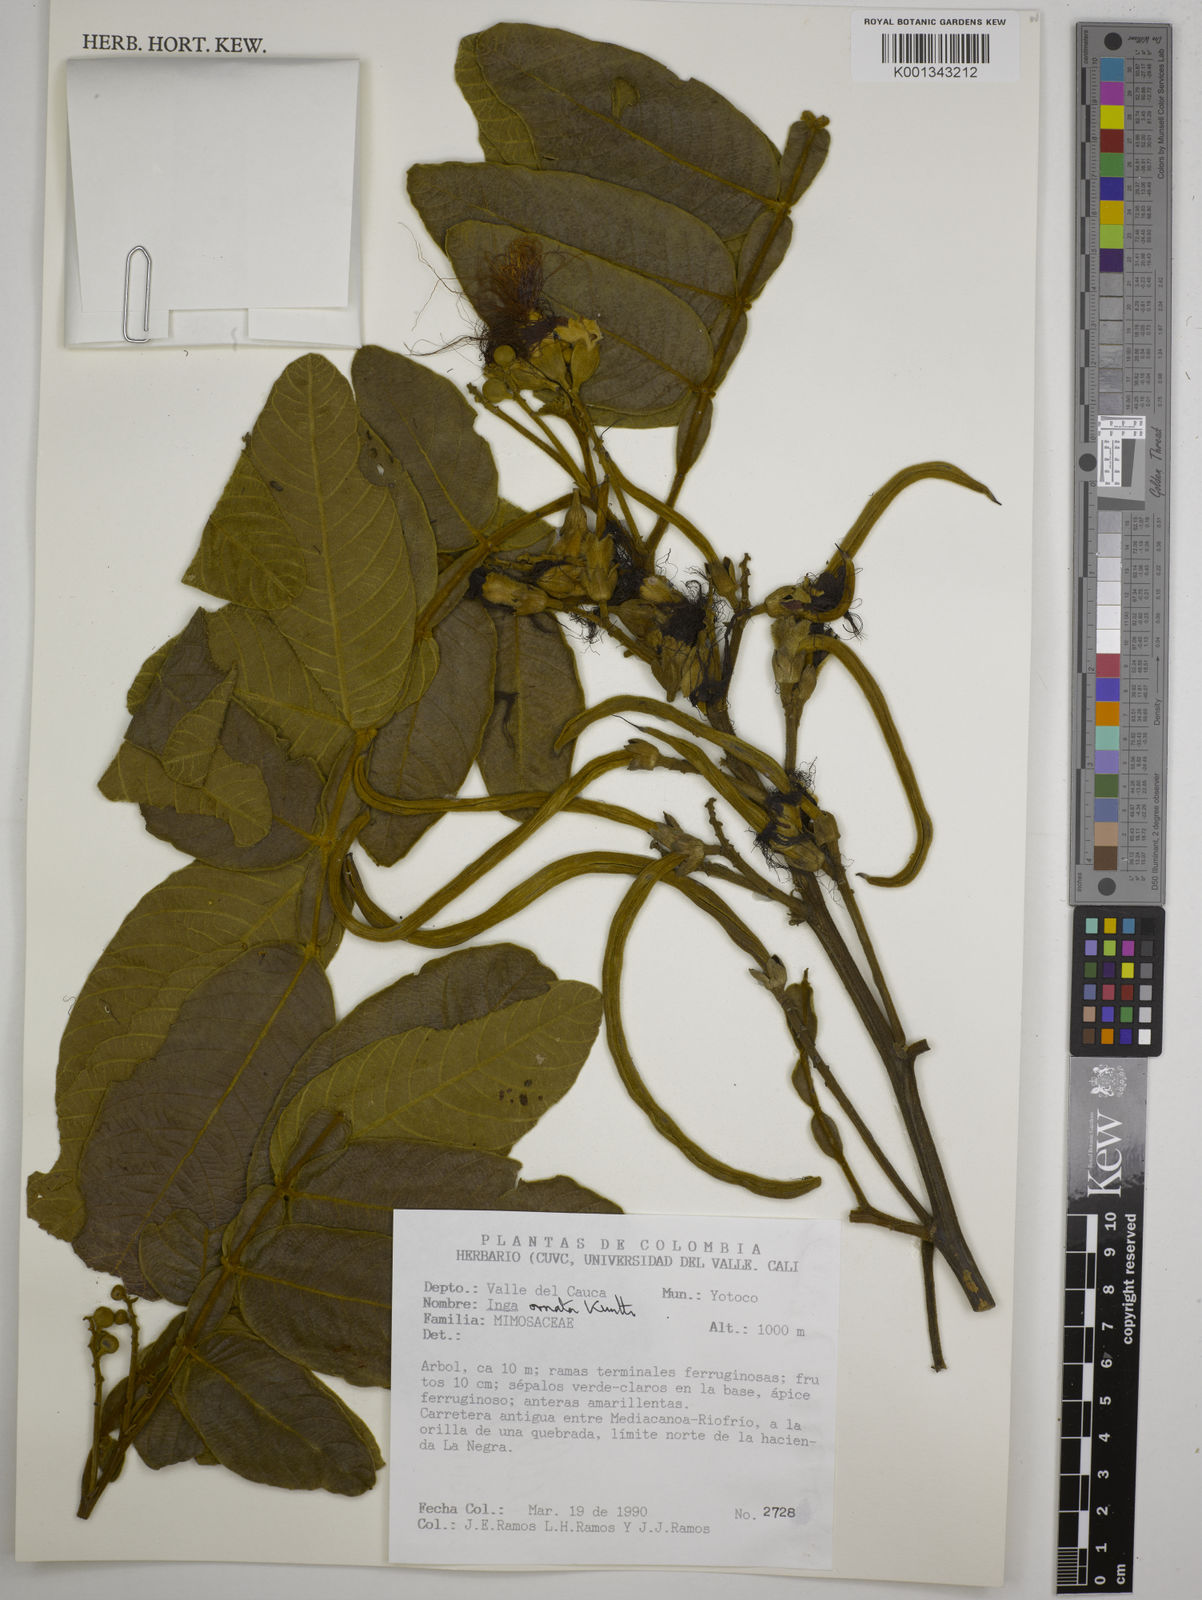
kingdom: Plantae
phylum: Tracheophyta
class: Magnoliopsida
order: Fabales
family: Fabaceae
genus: Inga
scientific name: Inga ornata
